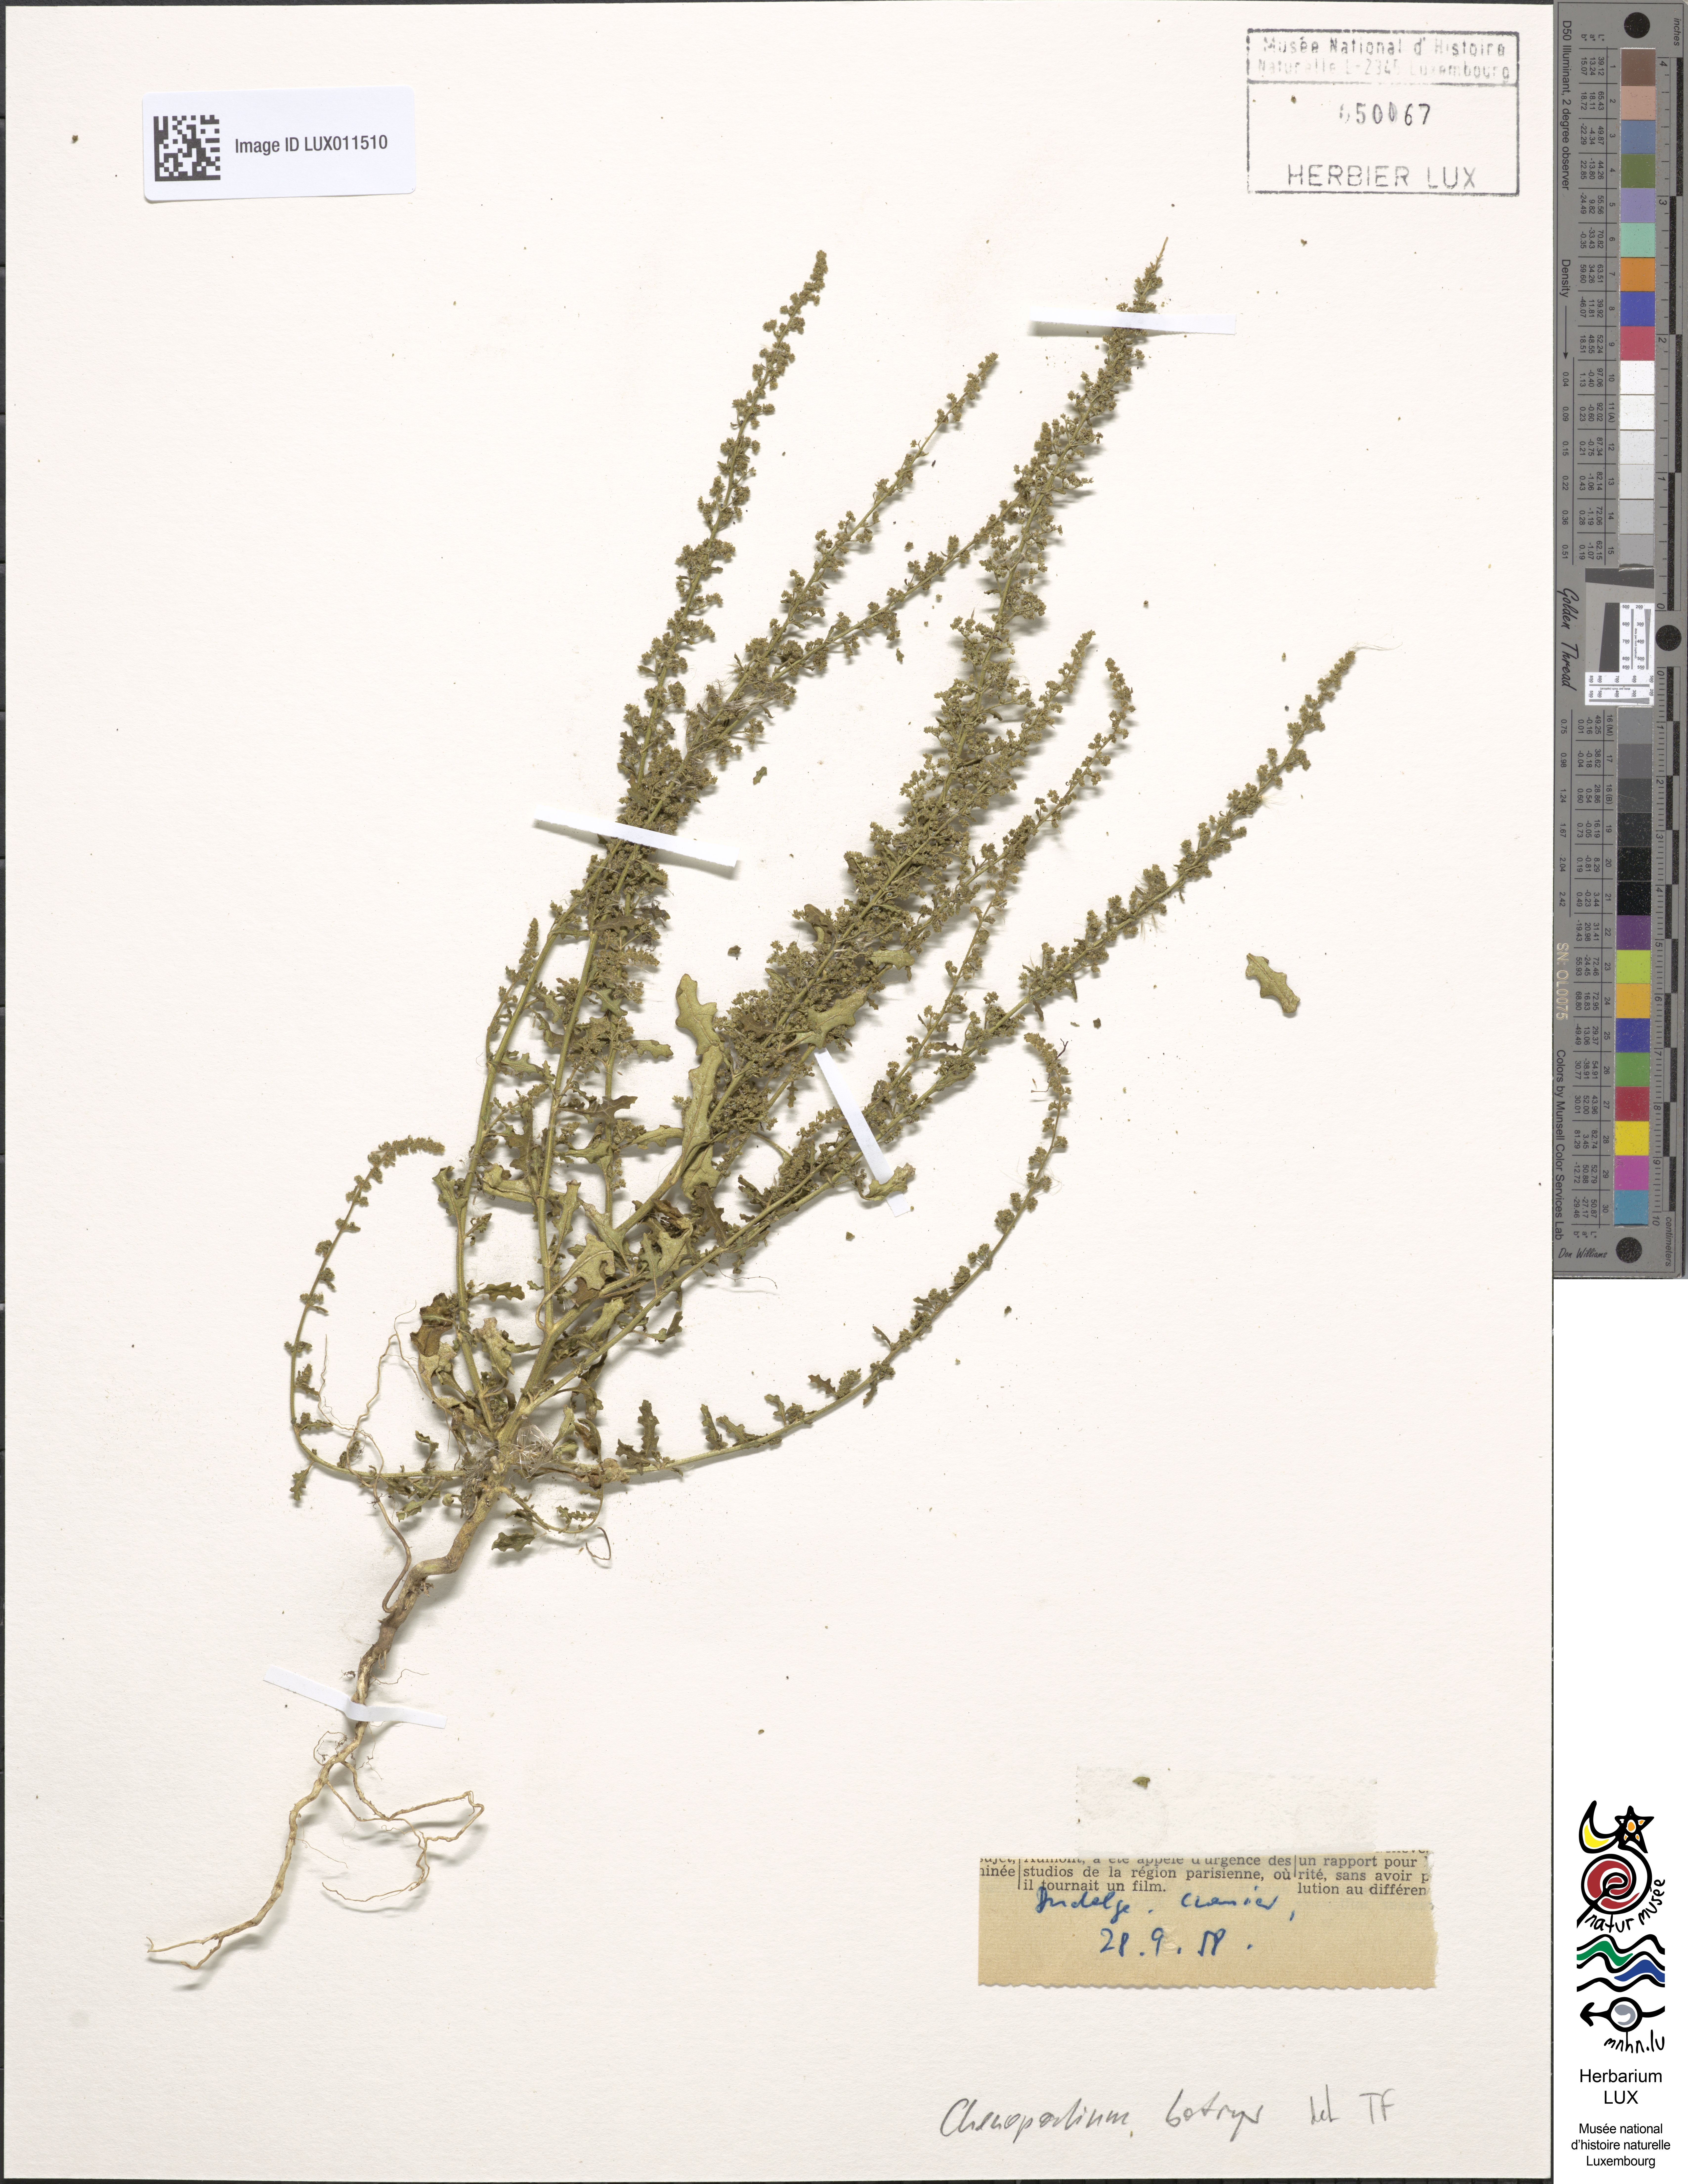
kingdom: Plantae
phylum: Tracheophyta
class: Magnoliopsida
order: Caryophyllales
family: Amaranthaceae
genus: Dysphania
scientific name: Dysphania botrys
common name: Feather-geranium
